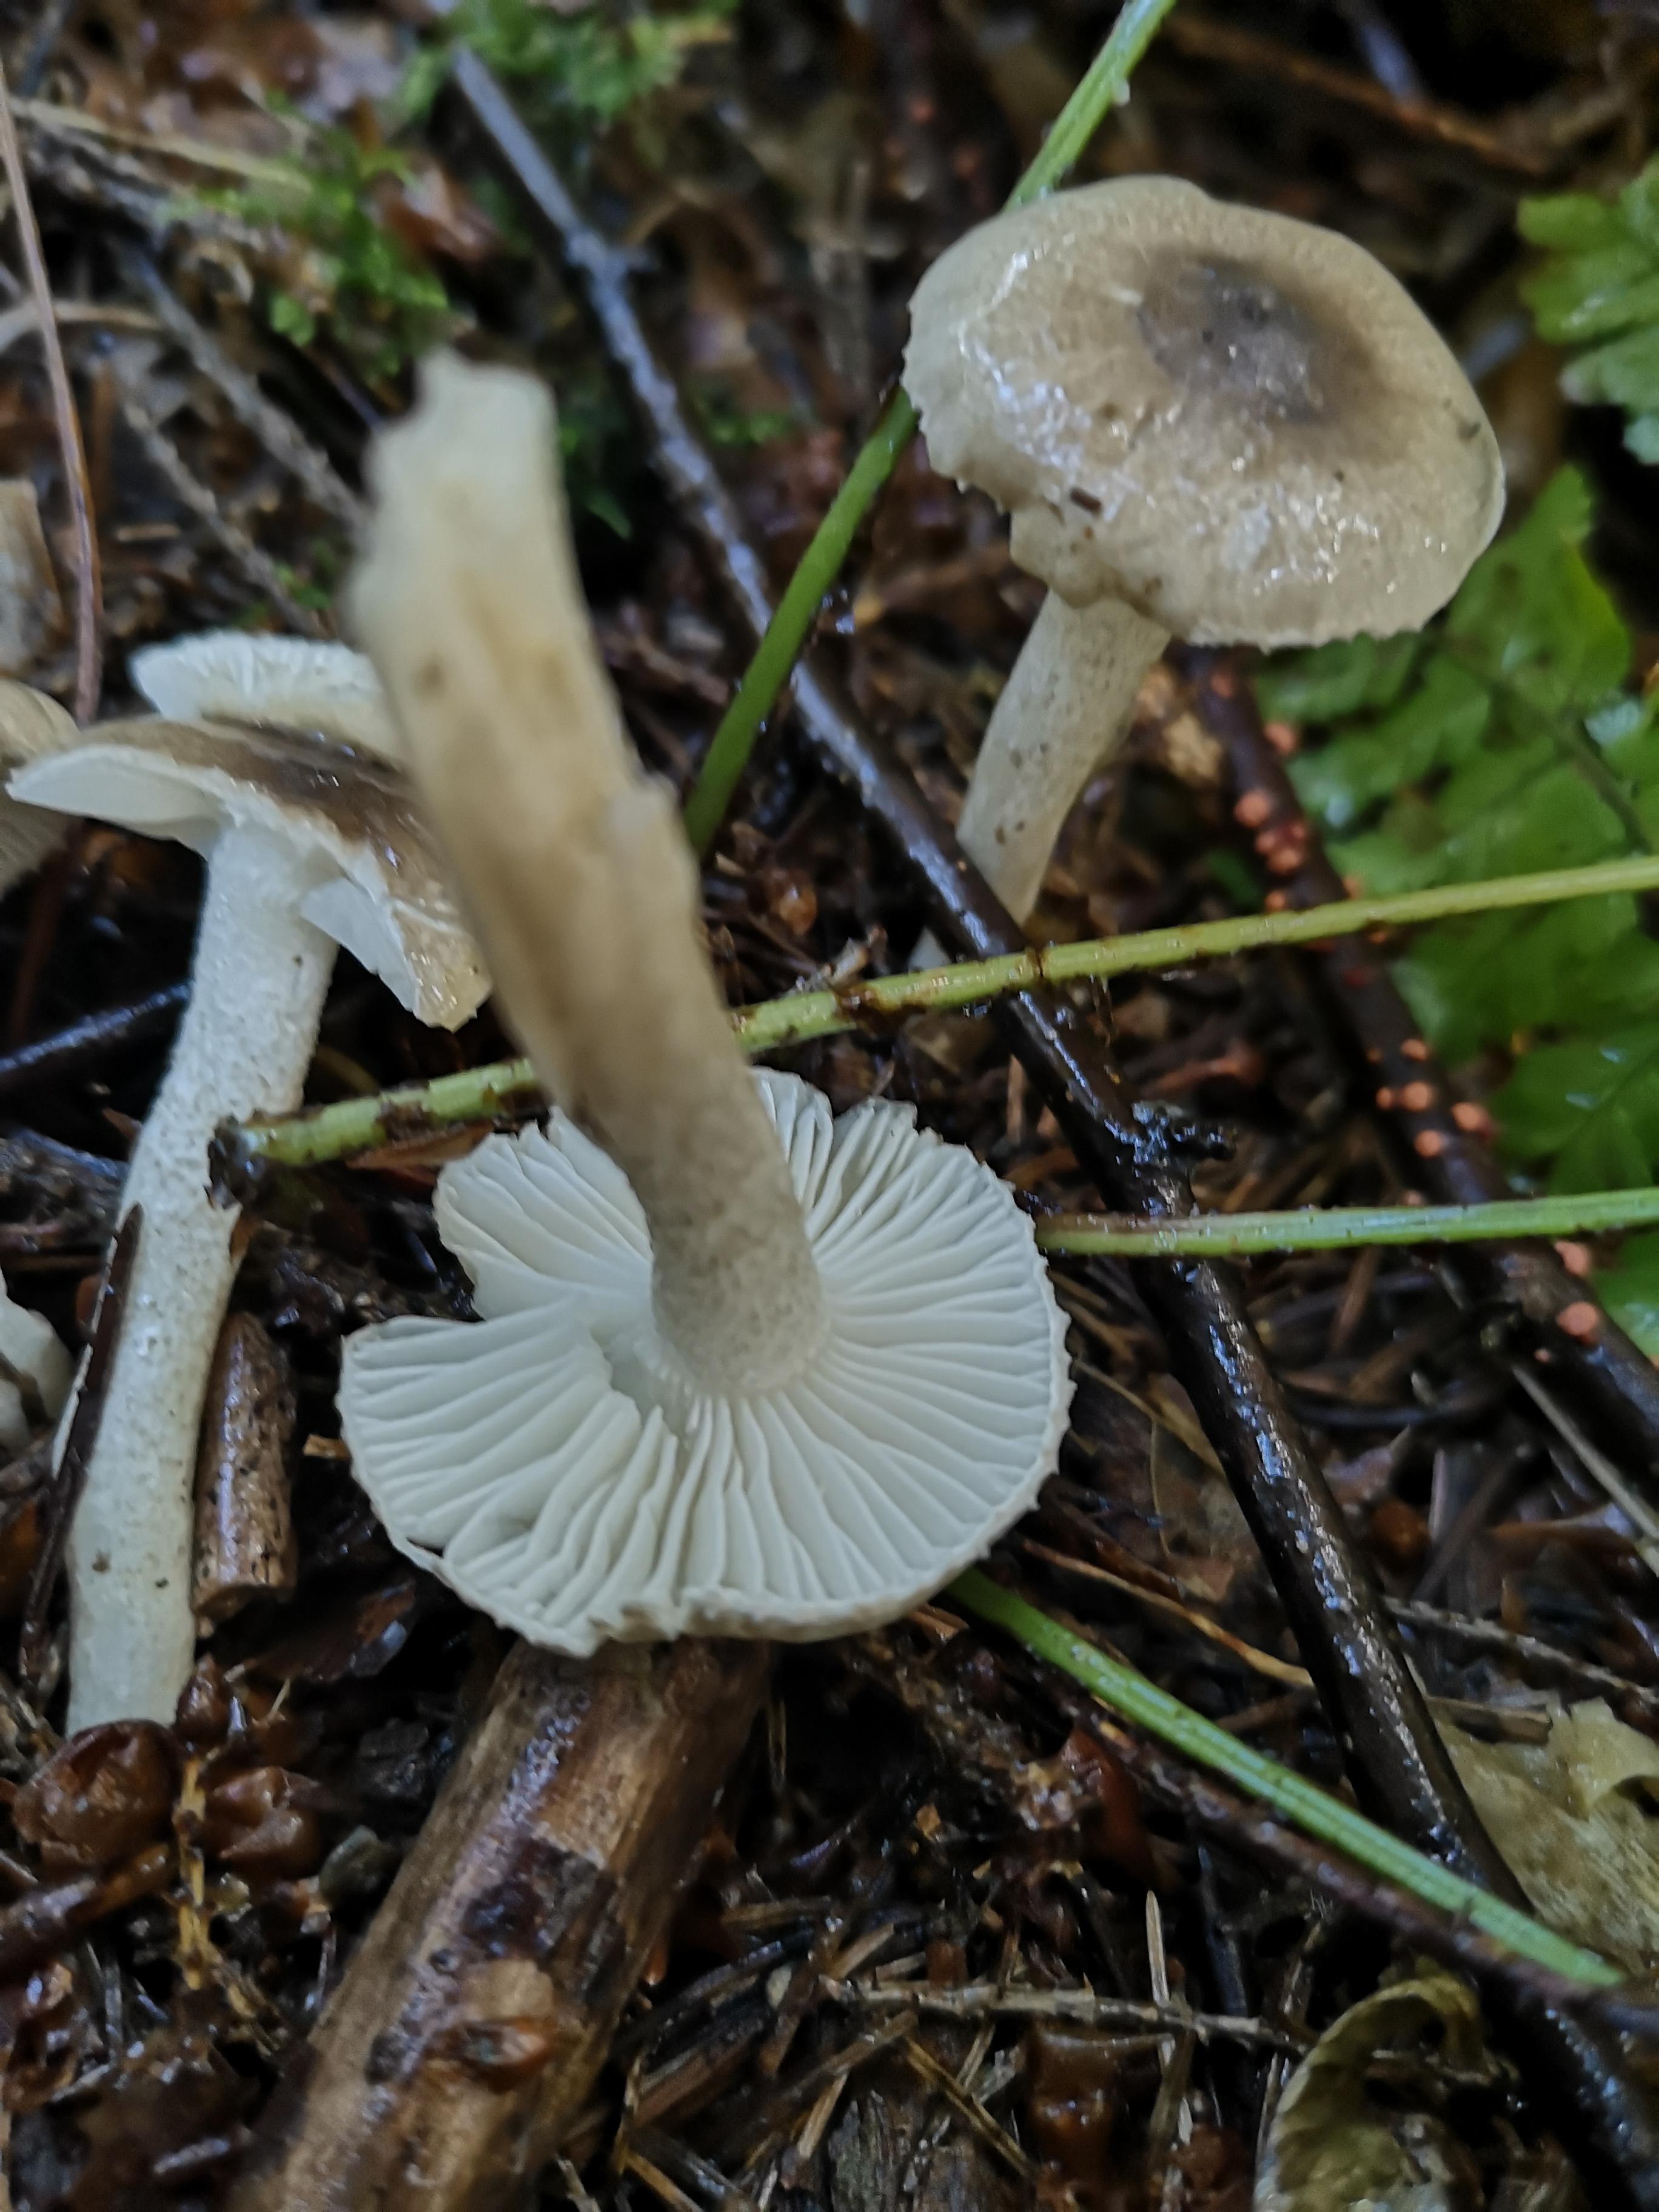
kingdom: Fungi
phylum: Basidiomycota
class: Agaricomycetes
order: Agaricales
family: Hygrophoraceae
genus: Hygrophorus
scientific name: Hygrophorus pustulatus
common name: mørkprikket sneglehat
